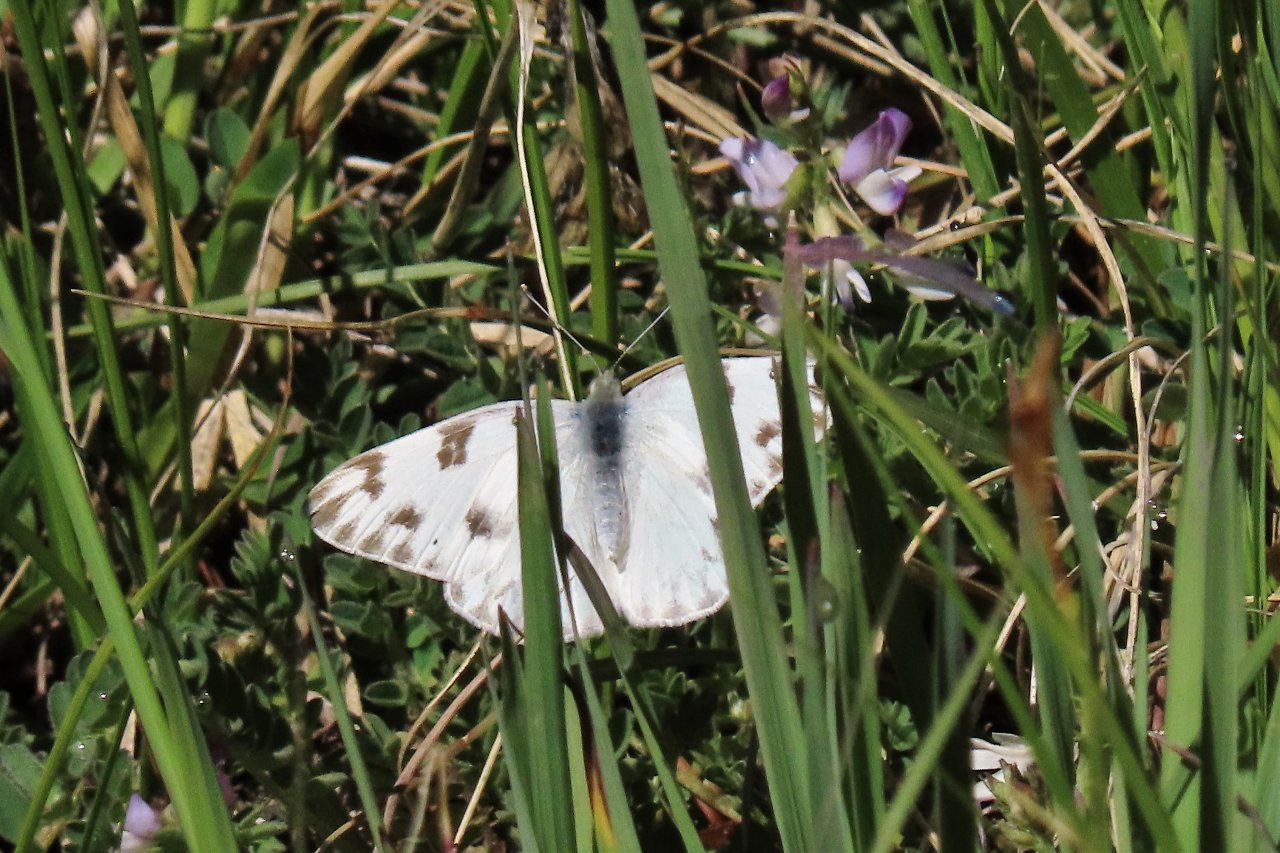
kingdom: Animalia
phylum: Arthropoda
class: Insecta
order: Lepidoptera
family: Pieridae
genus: Pontia
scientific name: Pontia protodice
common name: Checkered White
